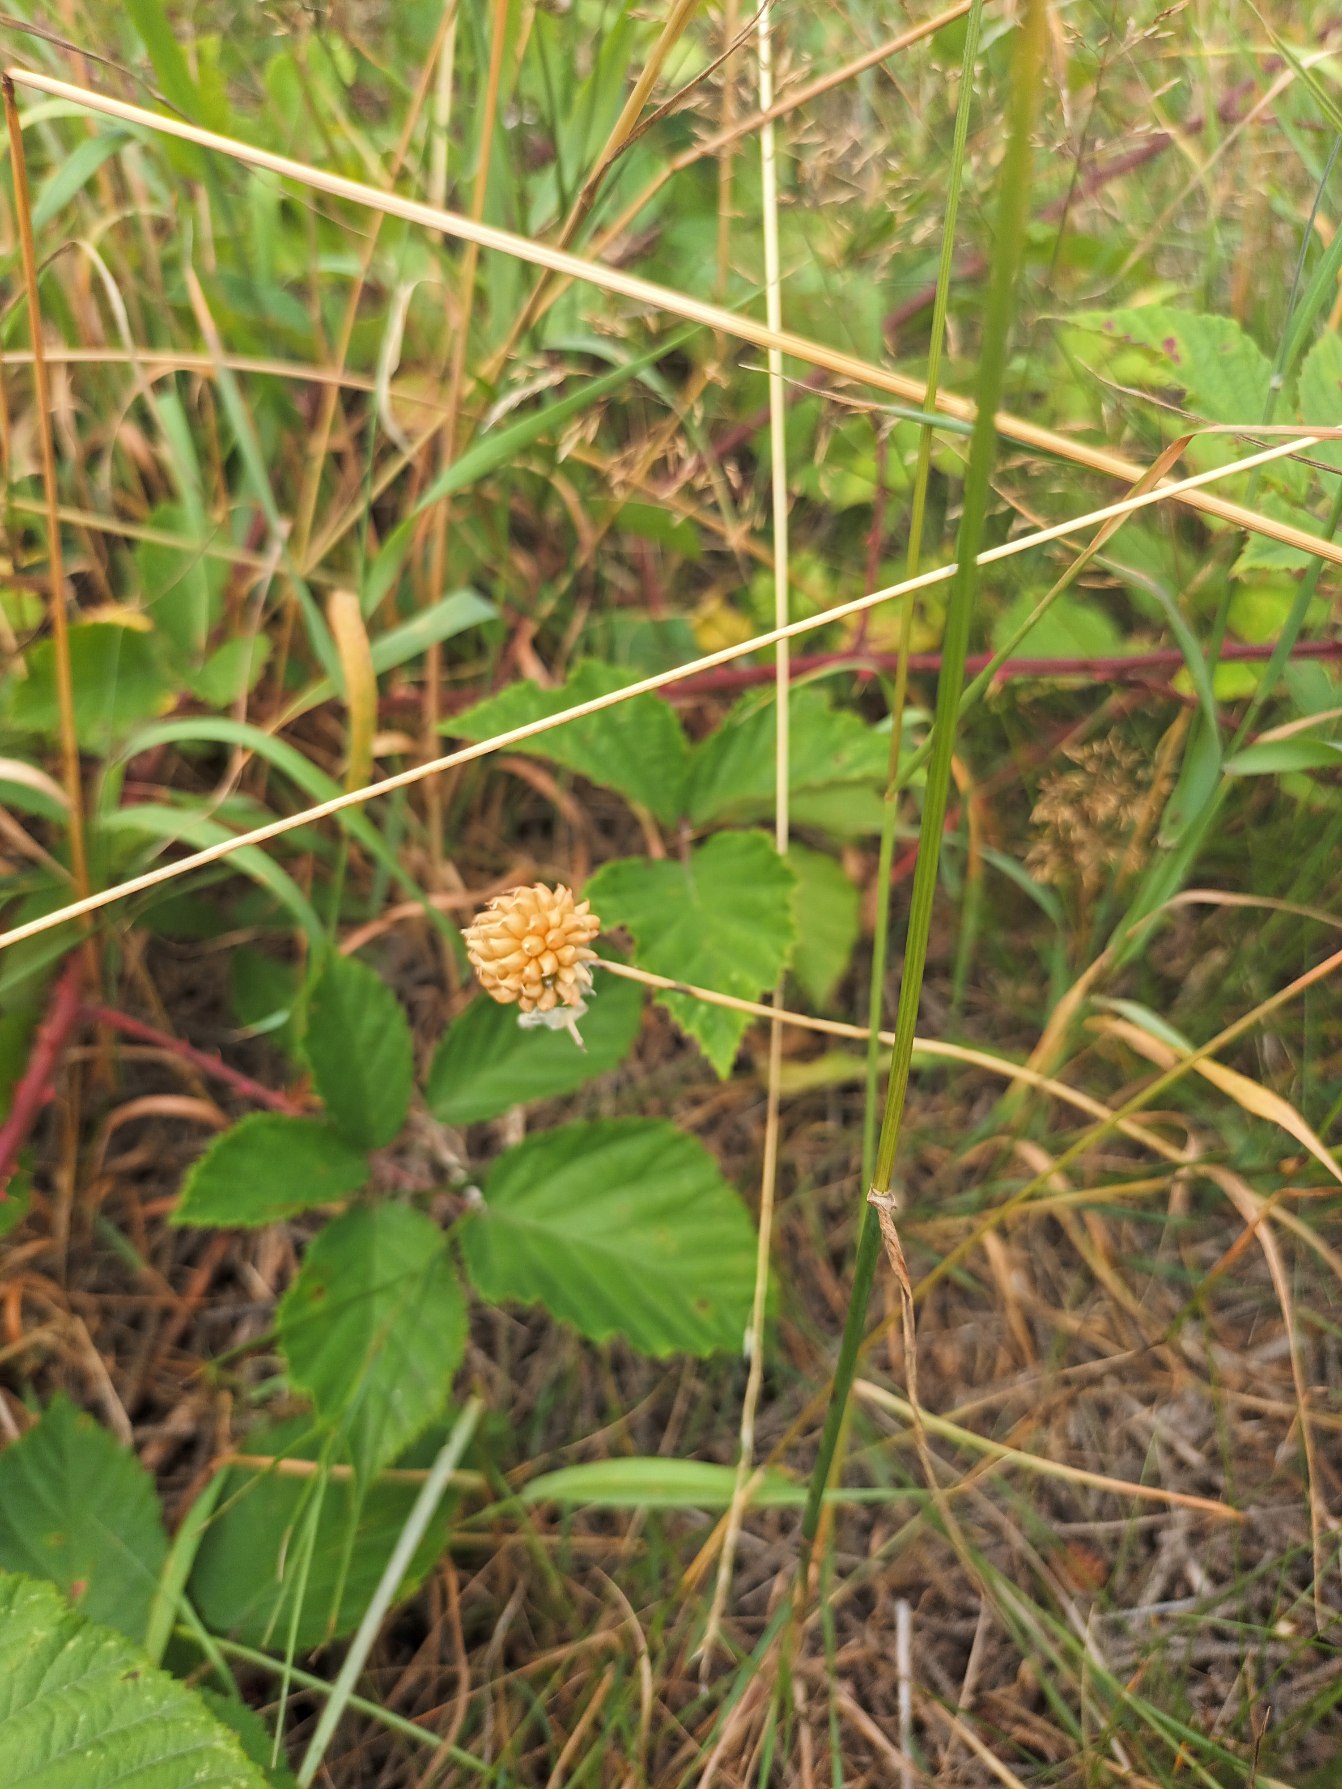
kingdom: Plantae
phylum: Tracheophyta
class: Liliopsida
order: Asparagales
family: Amaryllidaceae
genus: Allium
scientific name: Allium vineale
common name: Sand-løg
